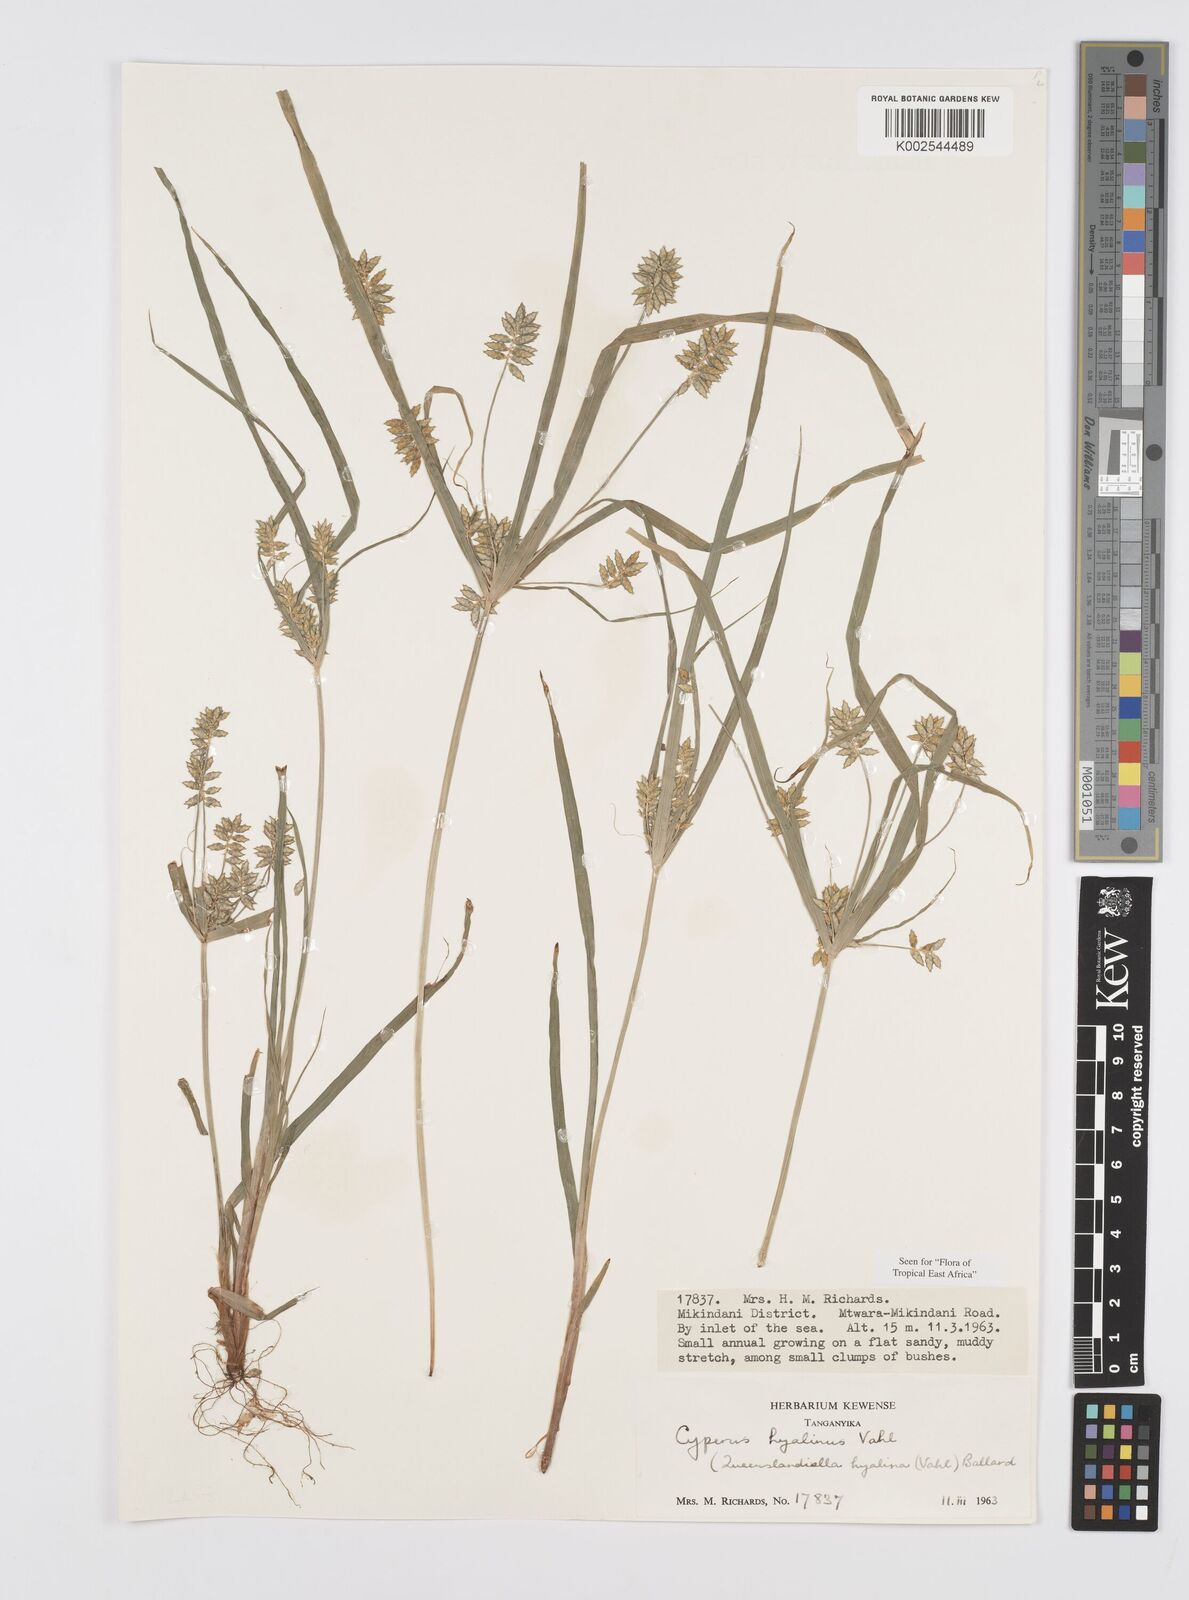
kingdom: Plantae
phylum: Tracheophyta
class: Liliopsida
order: Poales
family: Cyperaceae
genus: Cyperus
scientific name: Cyperus hyalinus
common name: Queensland sedge
